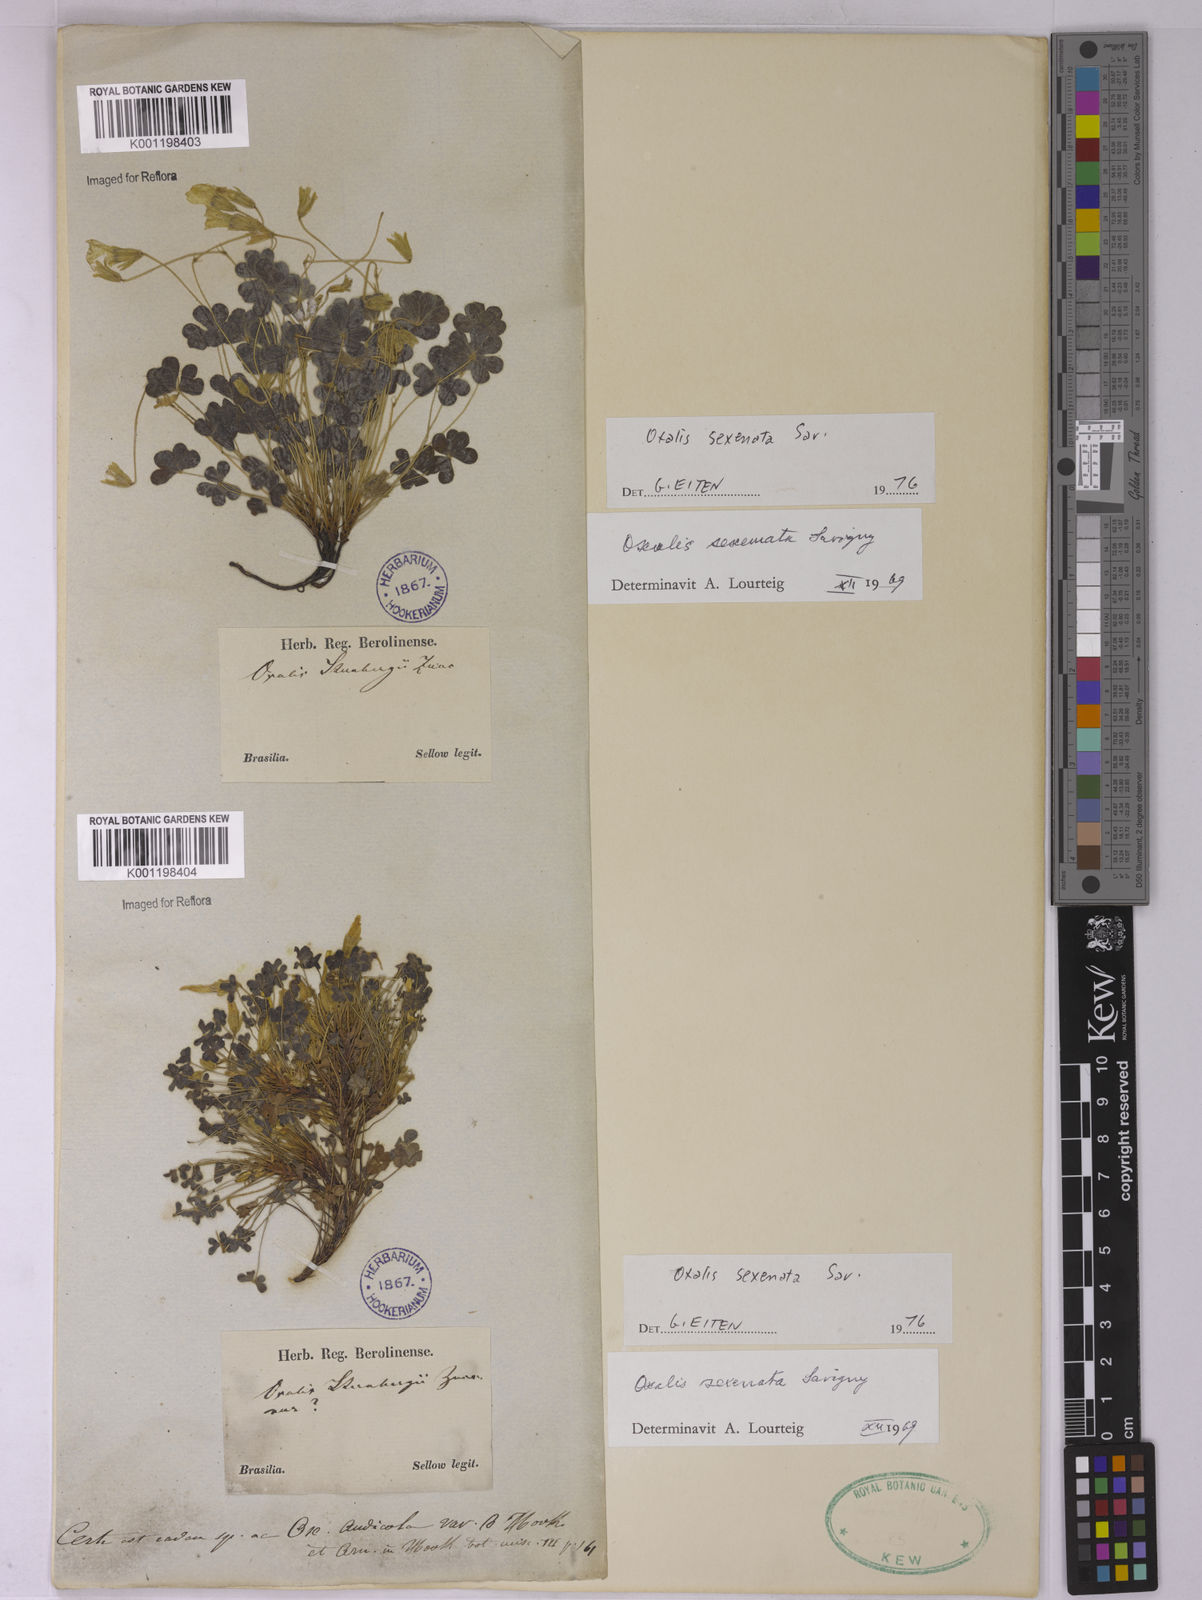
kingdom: Plantae
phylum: Tracheophyta
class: Magnoliopsida
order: Oxalidales
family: Oxalidaceae
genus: Oxalis
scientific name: Oxalis conorrhiza
